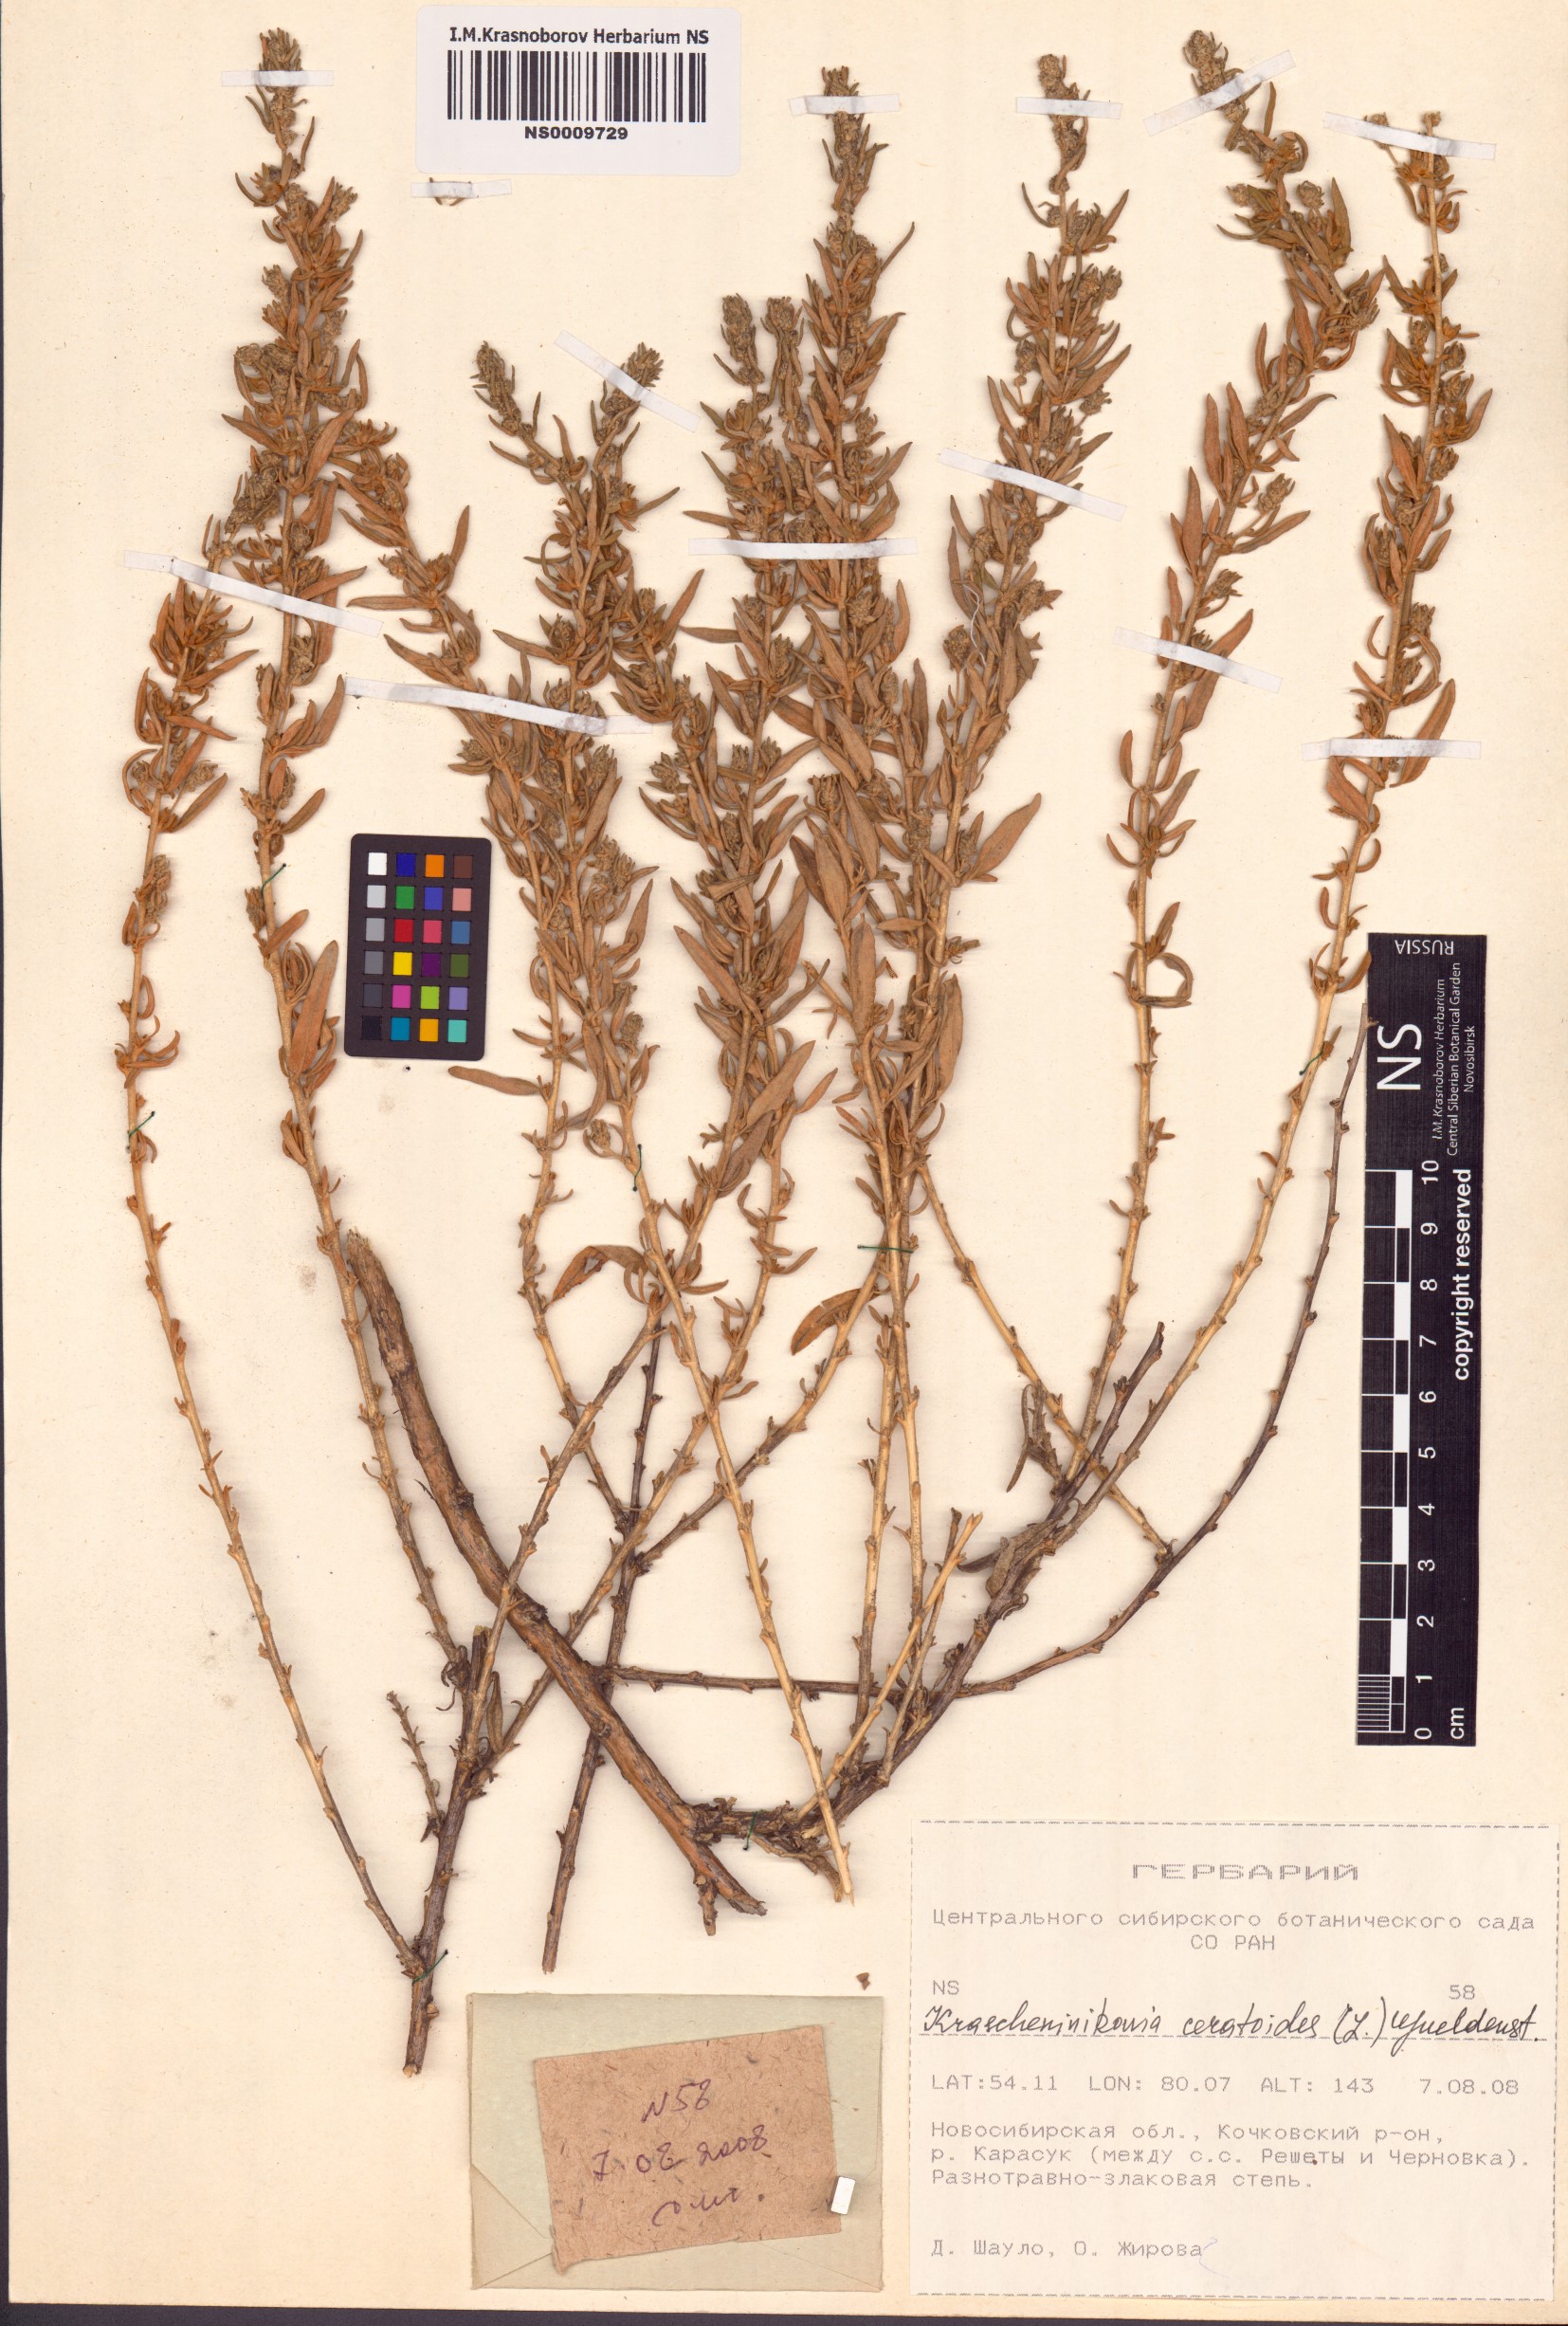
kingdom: Plantae
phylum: Tracheophyta
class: Magnoliopsida
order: Caryophyllales
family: Amaranthaceae
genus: Krascheninnikovia
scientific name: Krascheninnikovia ceratoides
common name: Pamirian winterfat
